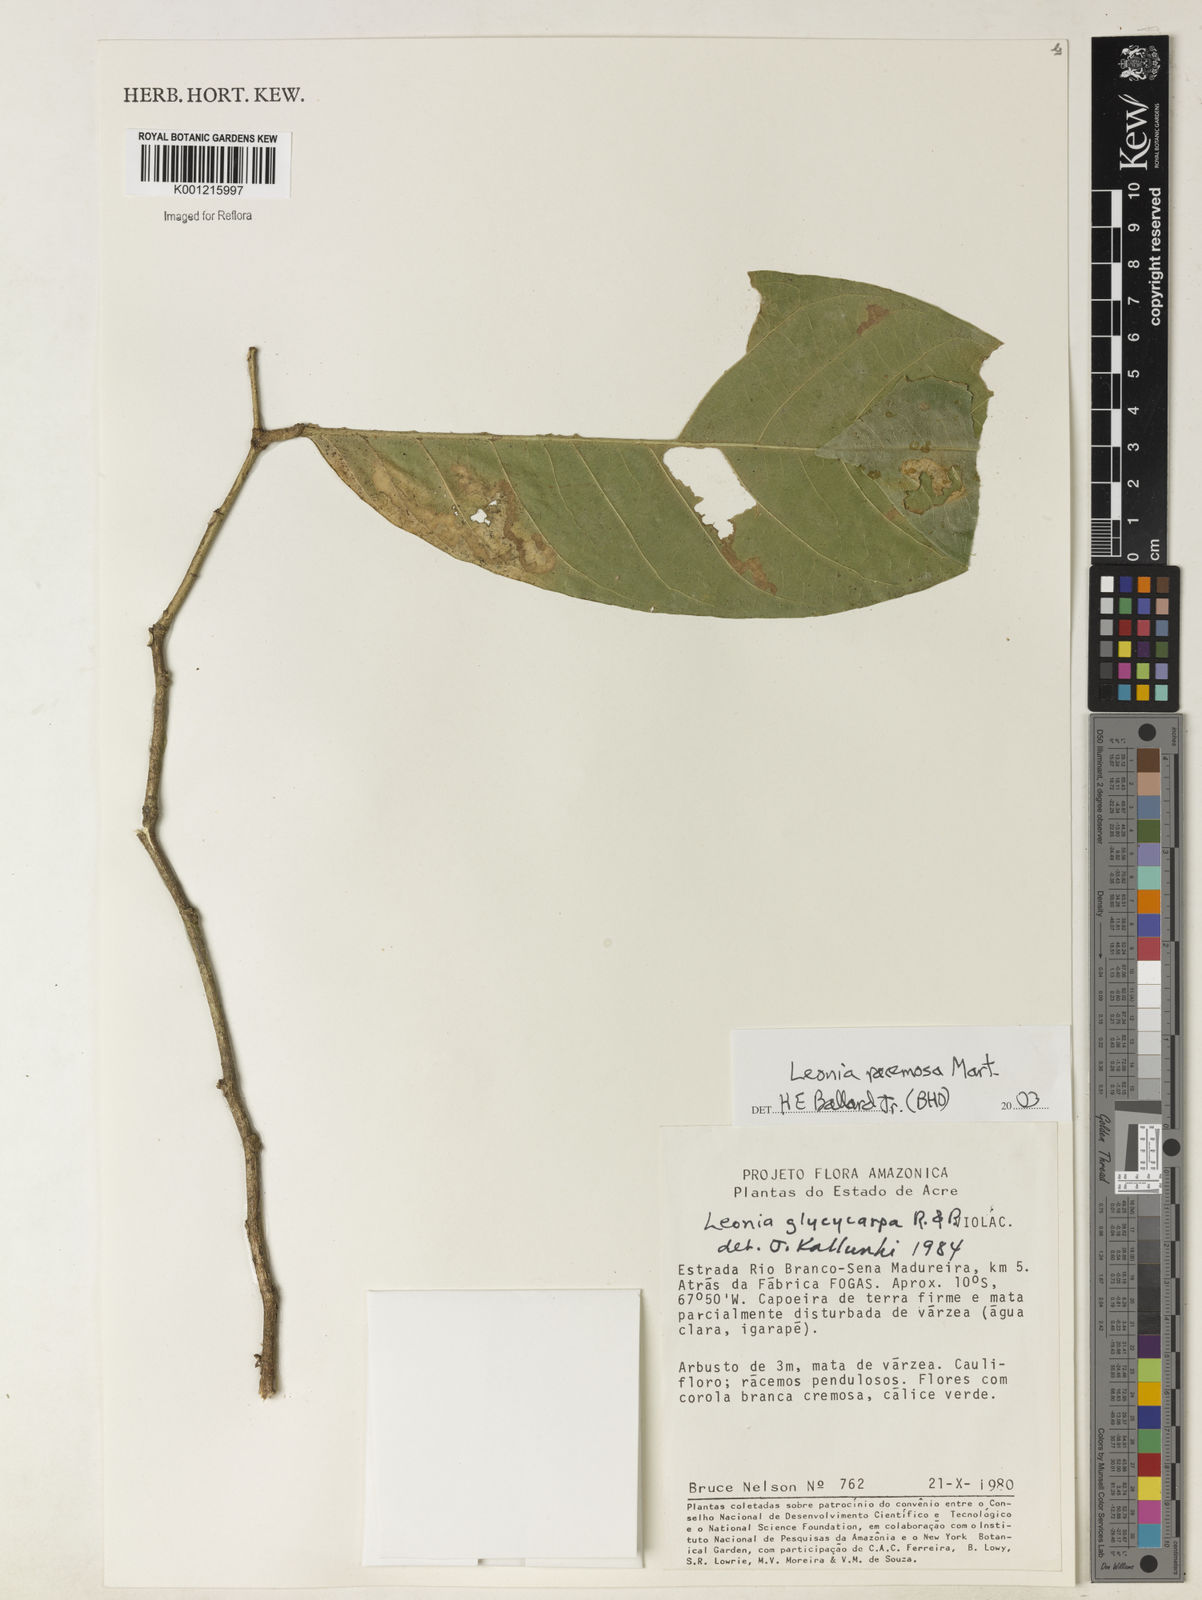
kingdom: Plantae
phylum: Tracheophyta
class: Magnoliopsida
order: Malpighiales
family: Violaceae
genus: Leonia
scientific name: Leonia glycycarpa
